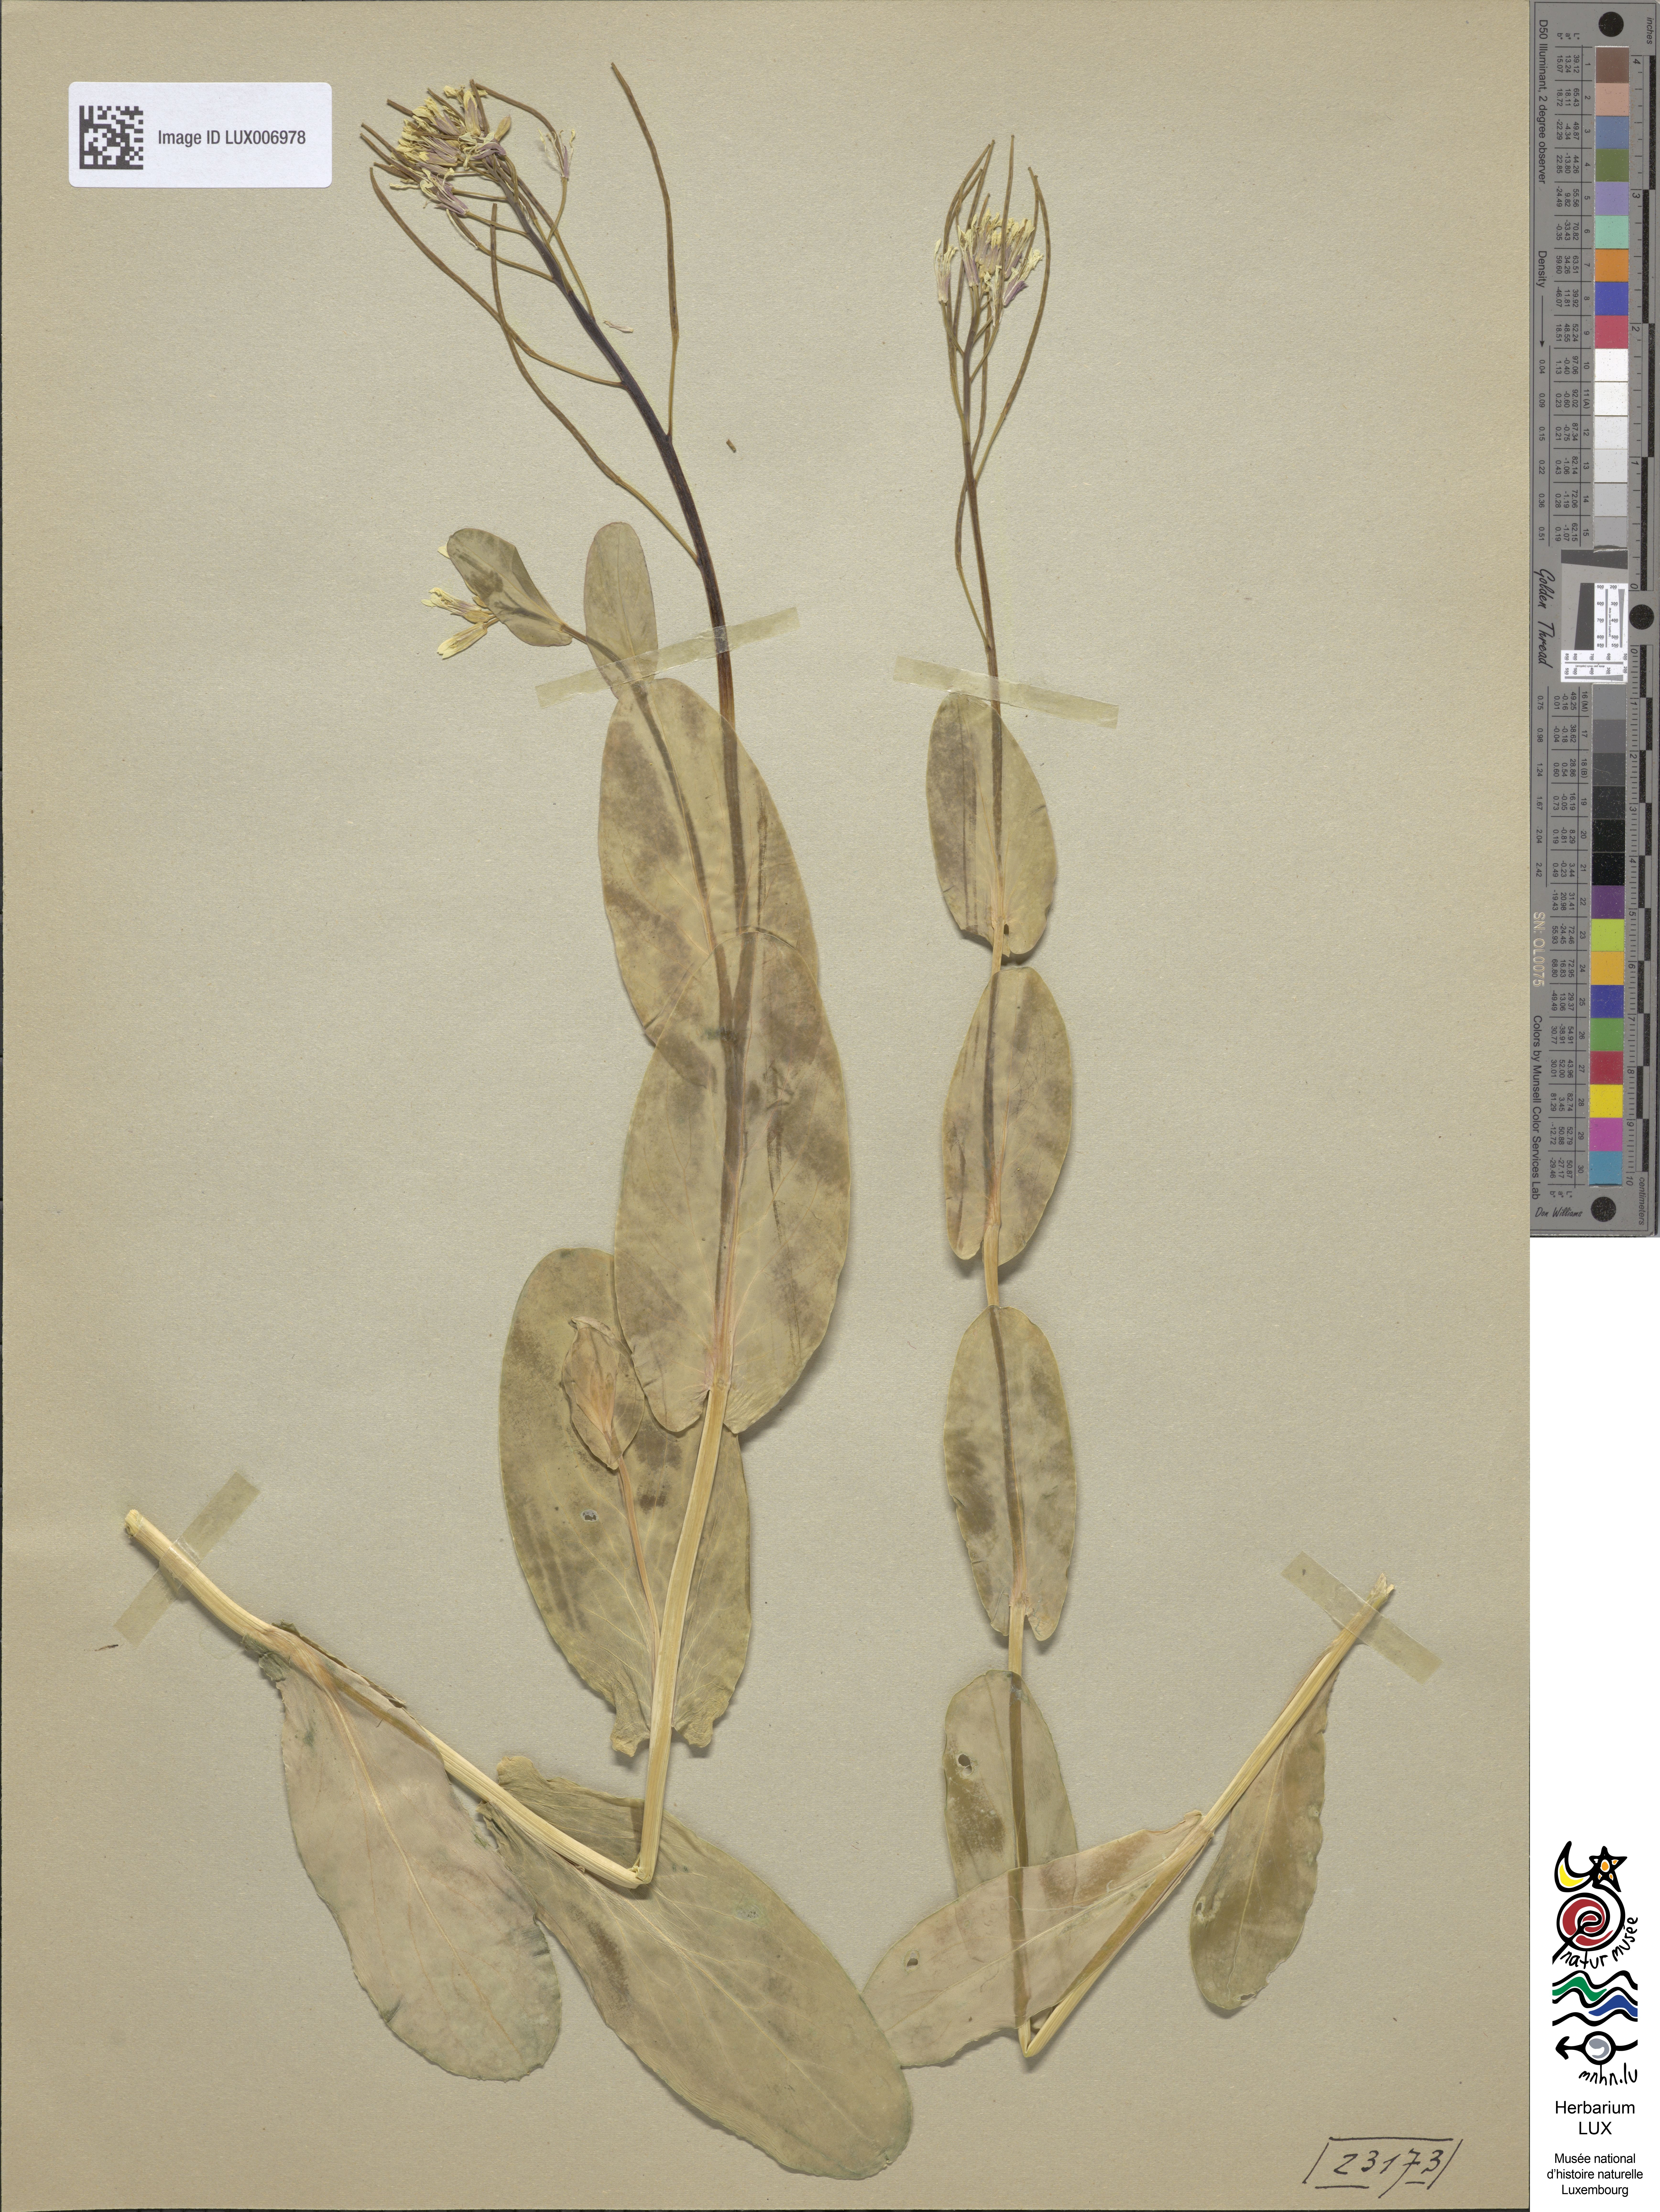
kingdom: Plantae
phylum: Tracheophyta
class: Magnoliopsida
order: Brassicales
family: Brassicaceae
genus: Conringia
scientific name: Conringia orientalis
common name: Hare's ear mustard
